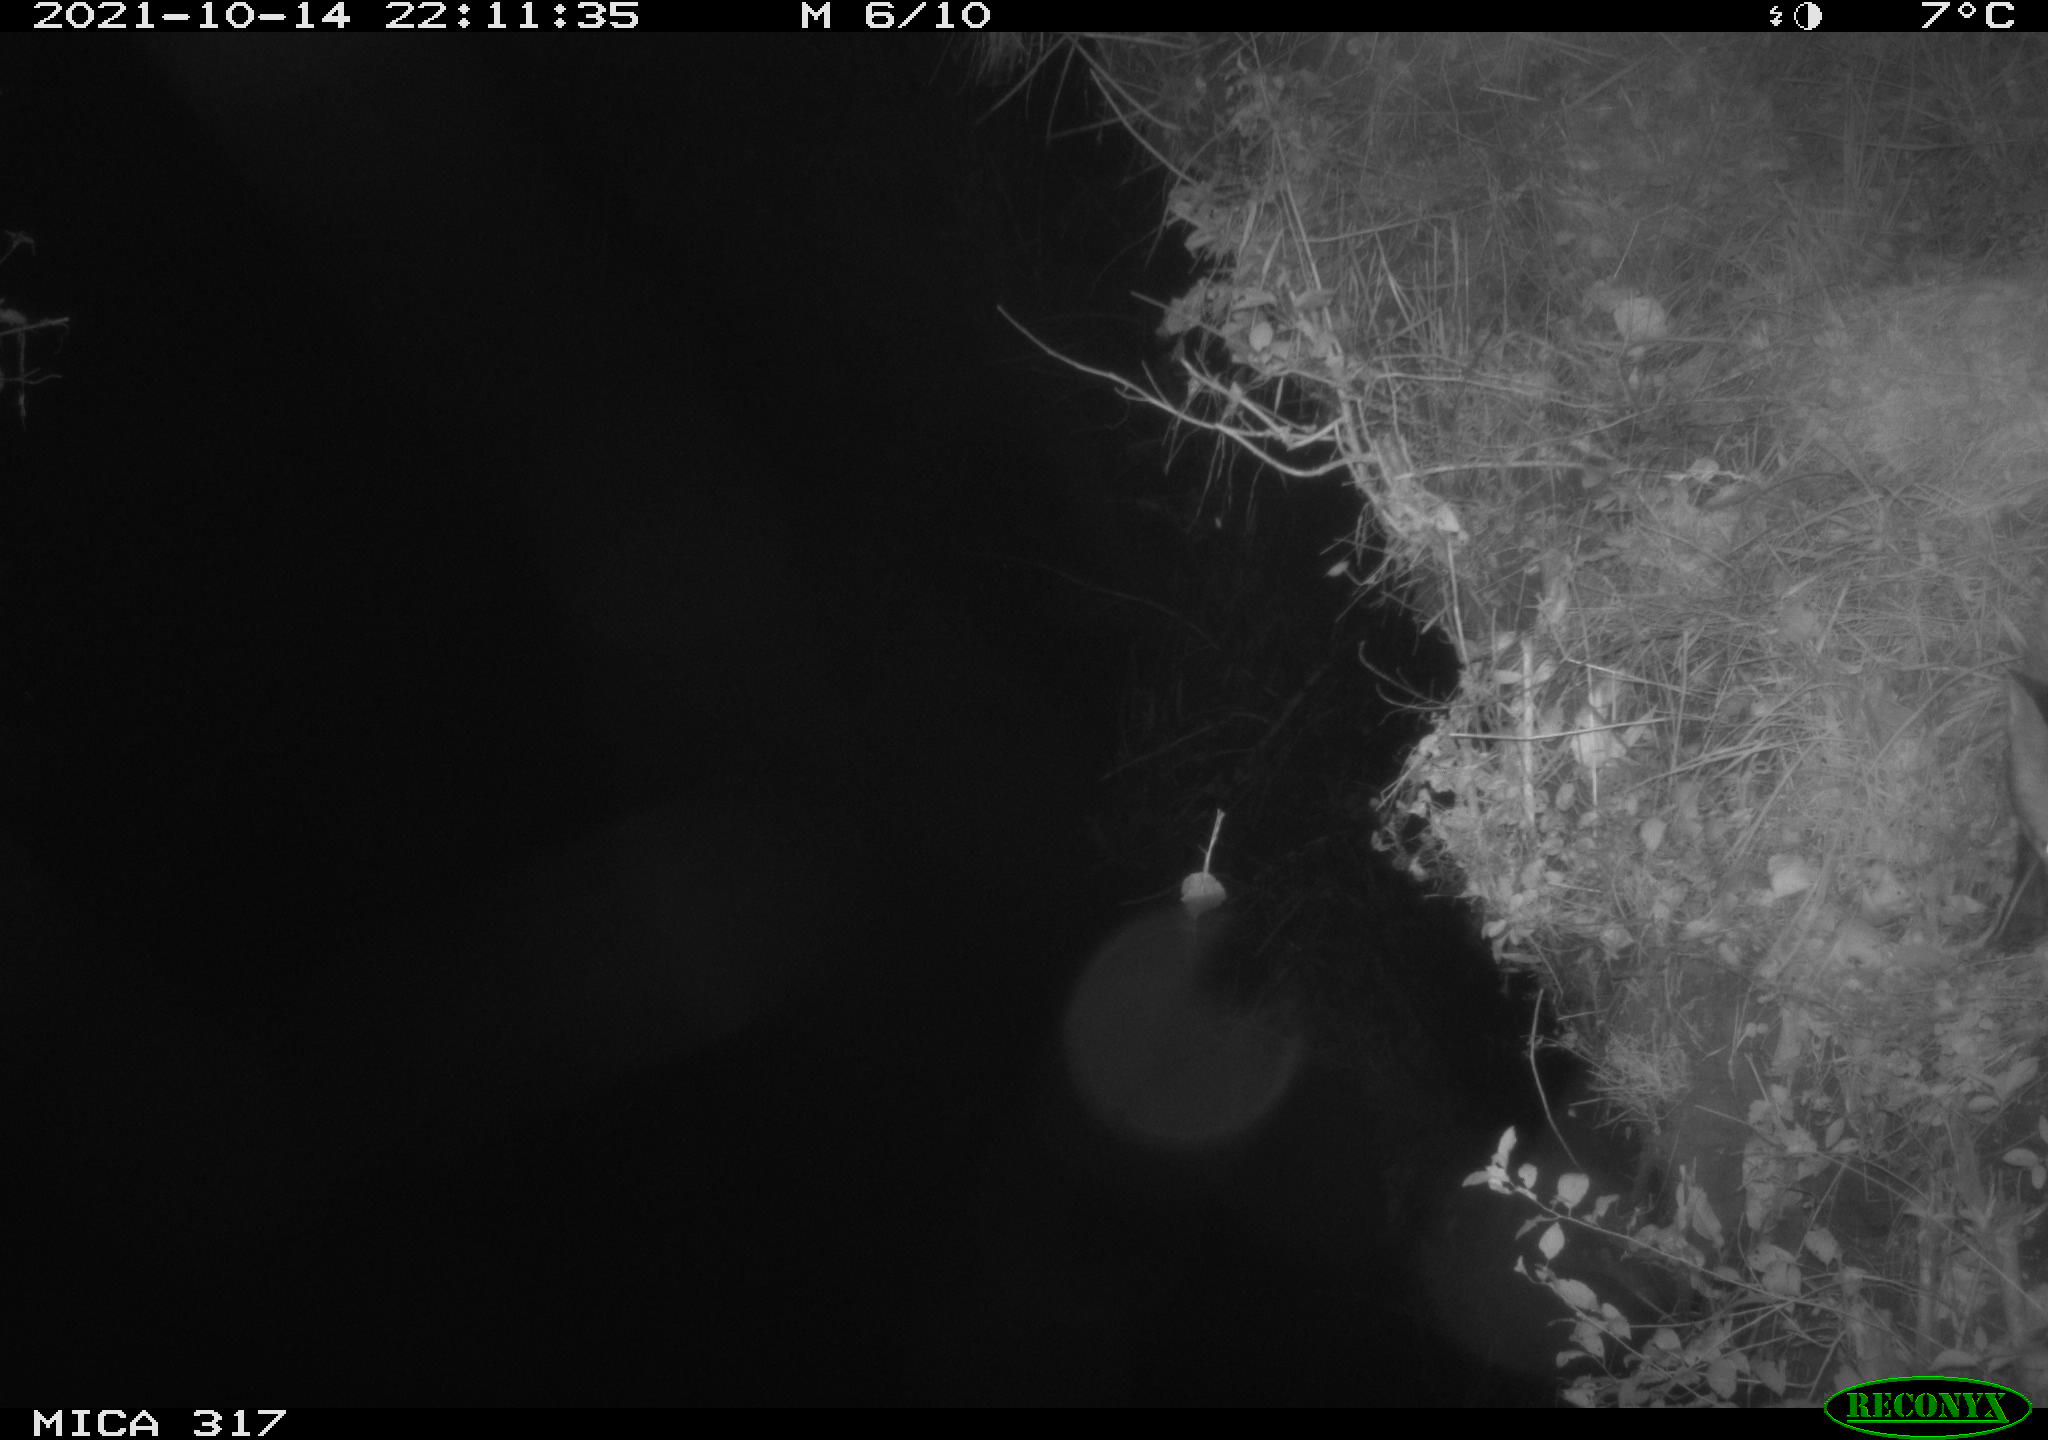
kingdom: Animalia
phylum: Chordata
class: Mammalia
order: Carnivora
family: Canidae
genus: Vulpes
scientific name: Vulpes vulpes
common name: Red fox
